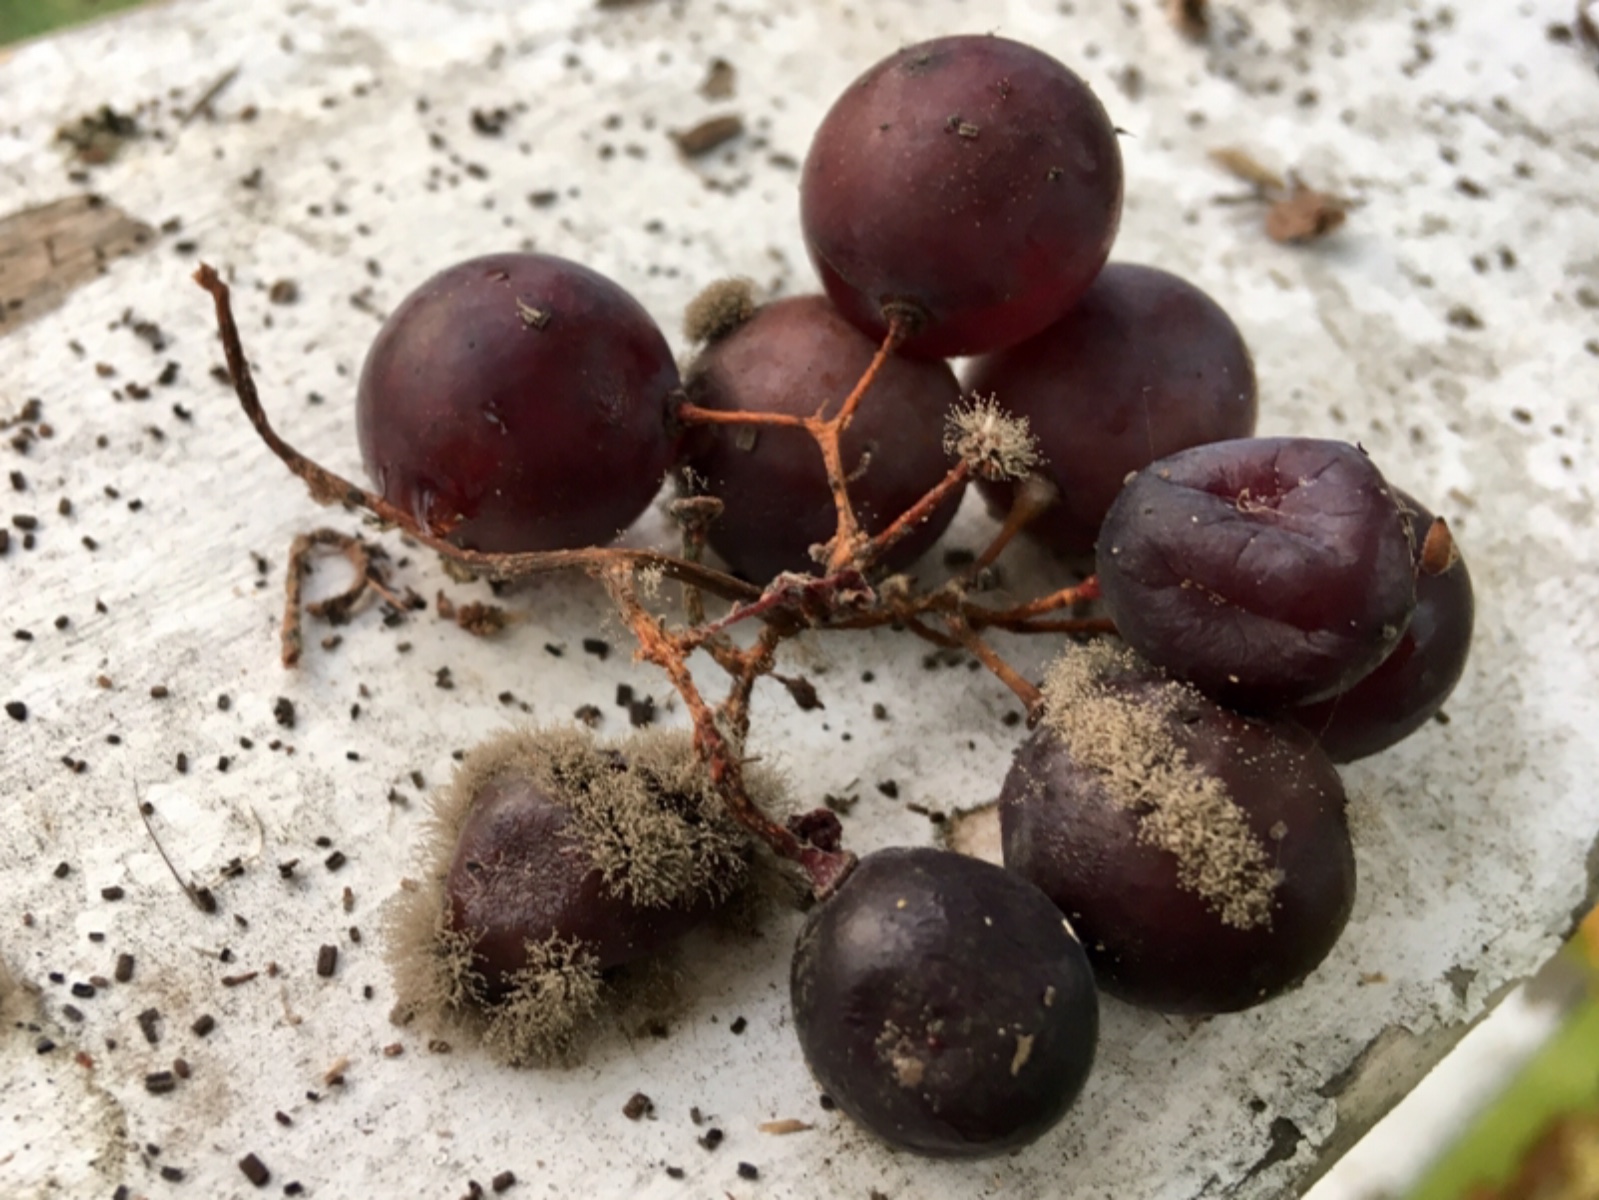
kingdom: Fungi
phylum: Ascomycota
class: Leotiomycetes
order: Helotiales
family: Sclerotiniaceae
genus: Botrytis
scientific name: Botrytis cinerea
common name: Grey mould
